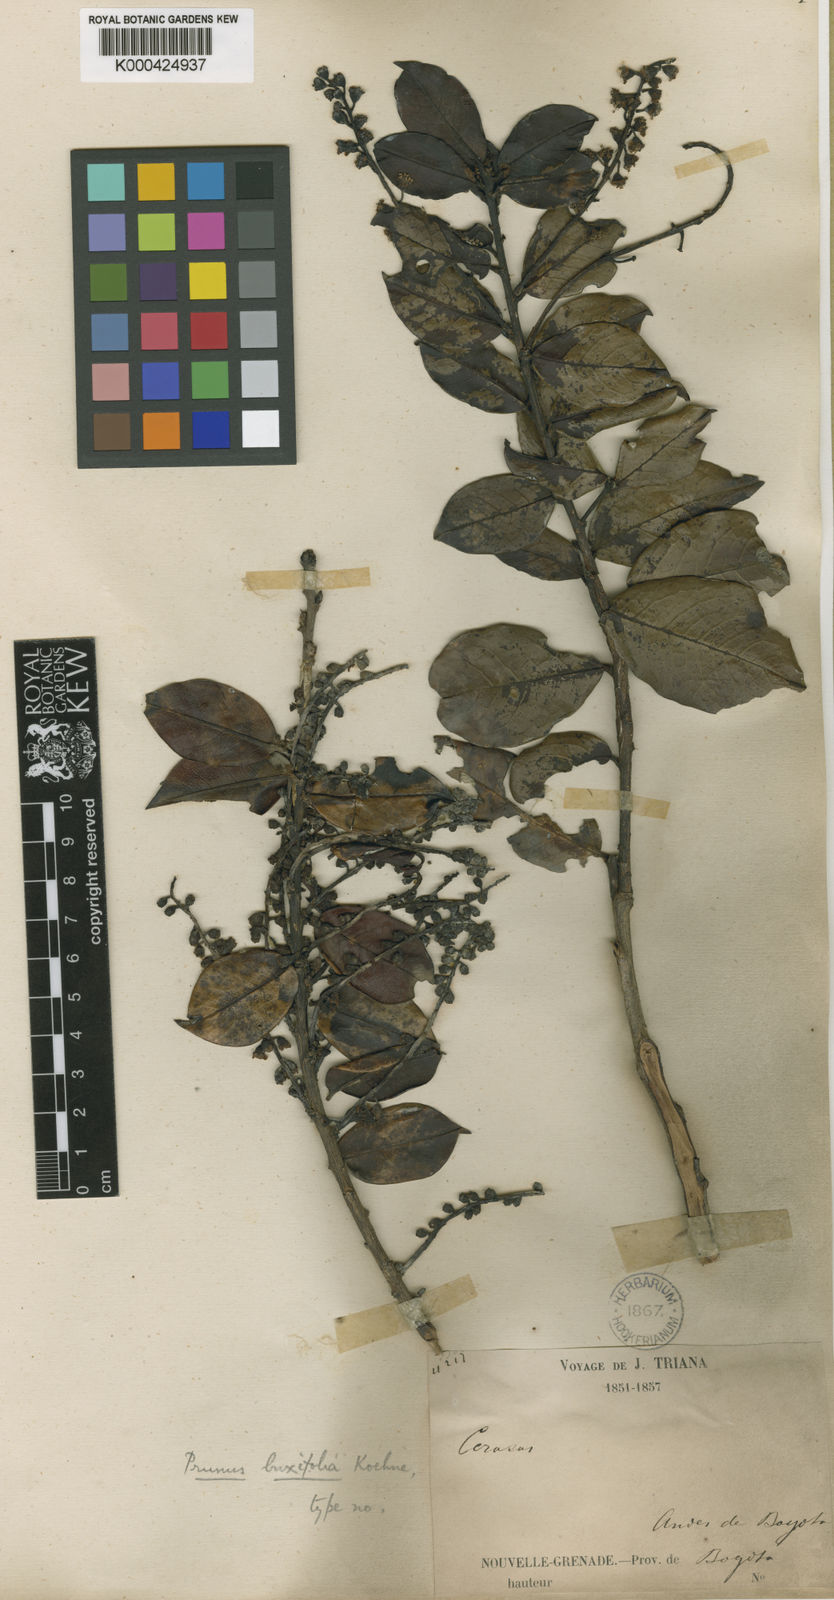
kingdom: Plantae
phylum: Tracheophyta
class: Magnoliopsida
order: Rosales
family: Rosaceae
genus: Prunus
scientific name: Prunus buxifolia
